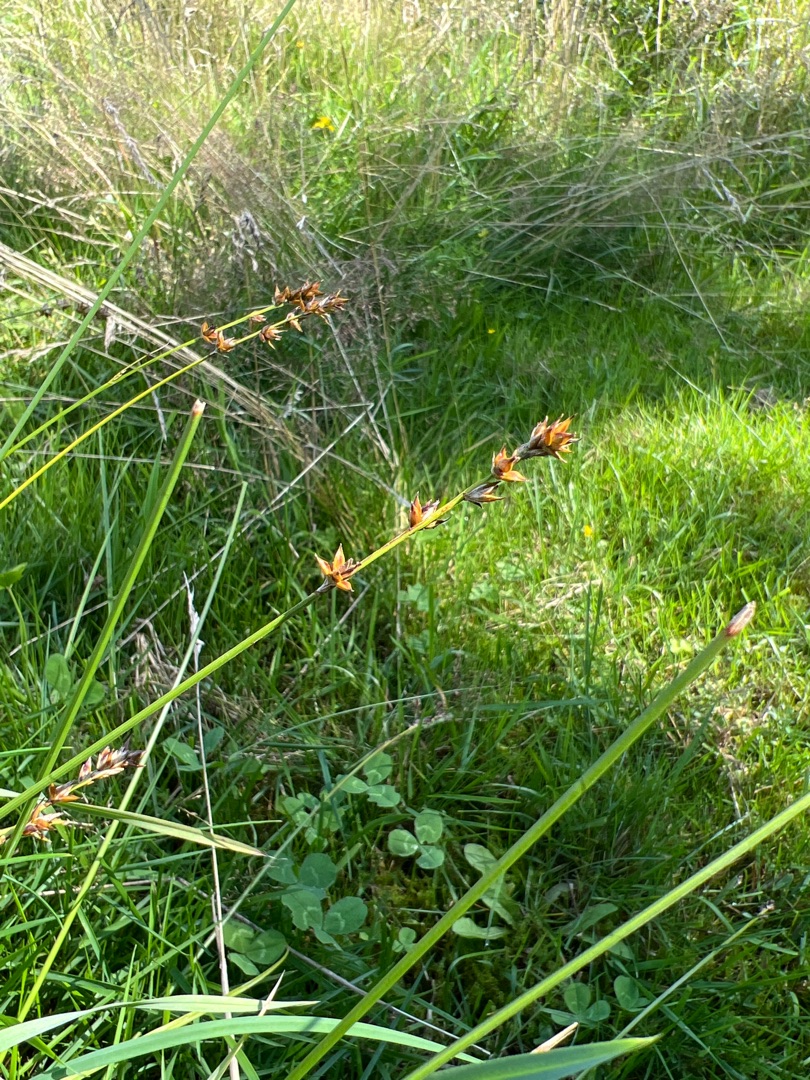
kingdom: Plantae
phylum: Tracheophyta
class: Liliopsida
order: Poales
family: Cyperaceae
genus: Carex
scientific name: Carex leersii
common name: Mellembrudt star (underart)
